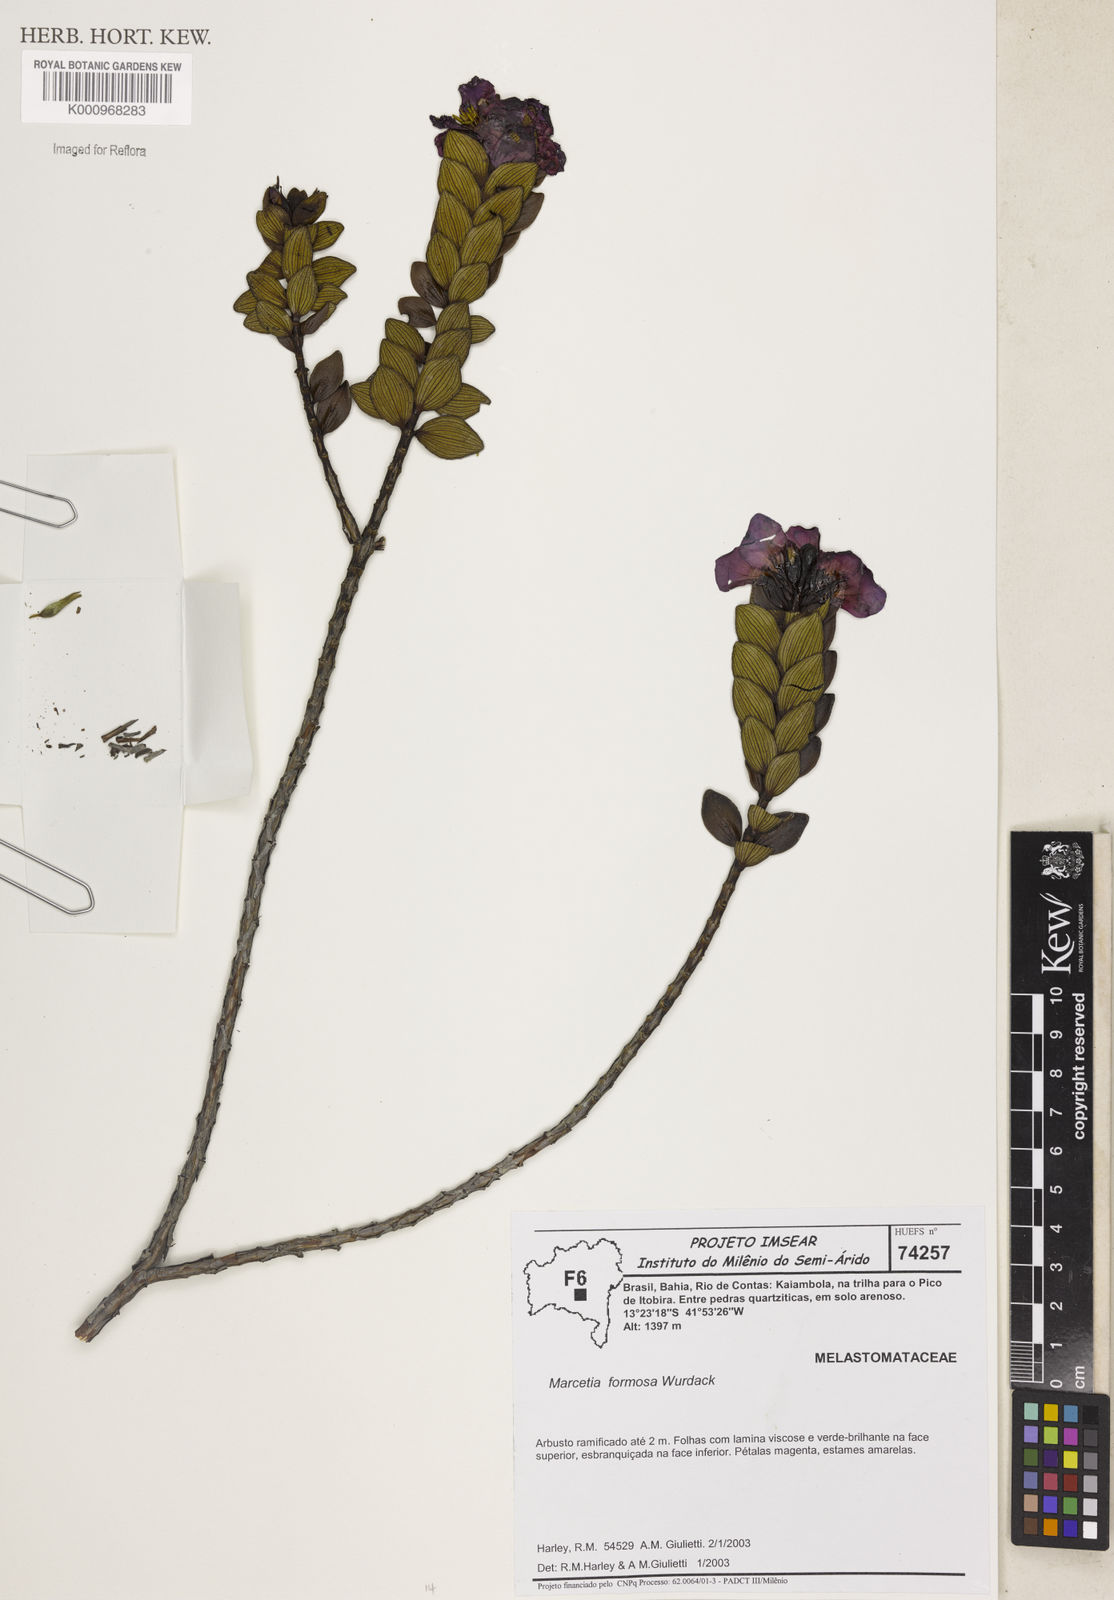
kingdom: Plantae
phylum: Tracheophyta
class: Magnoliopsida
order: Myrtales
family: Melastomataceae
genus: Marcetia
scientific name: Marcetia formosa
